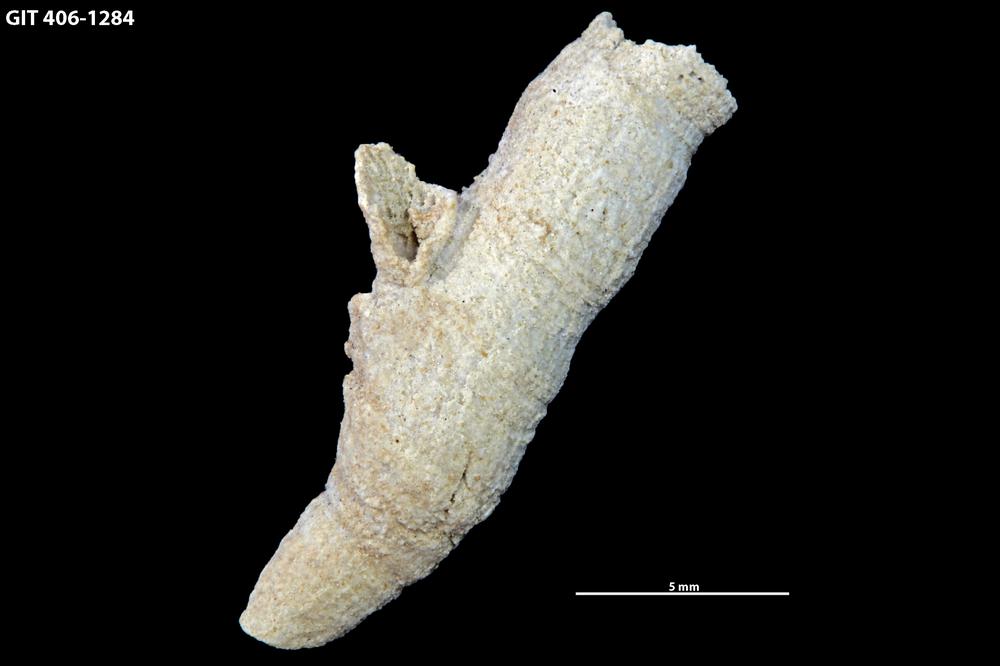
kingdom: Animalia
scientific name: Animalia
